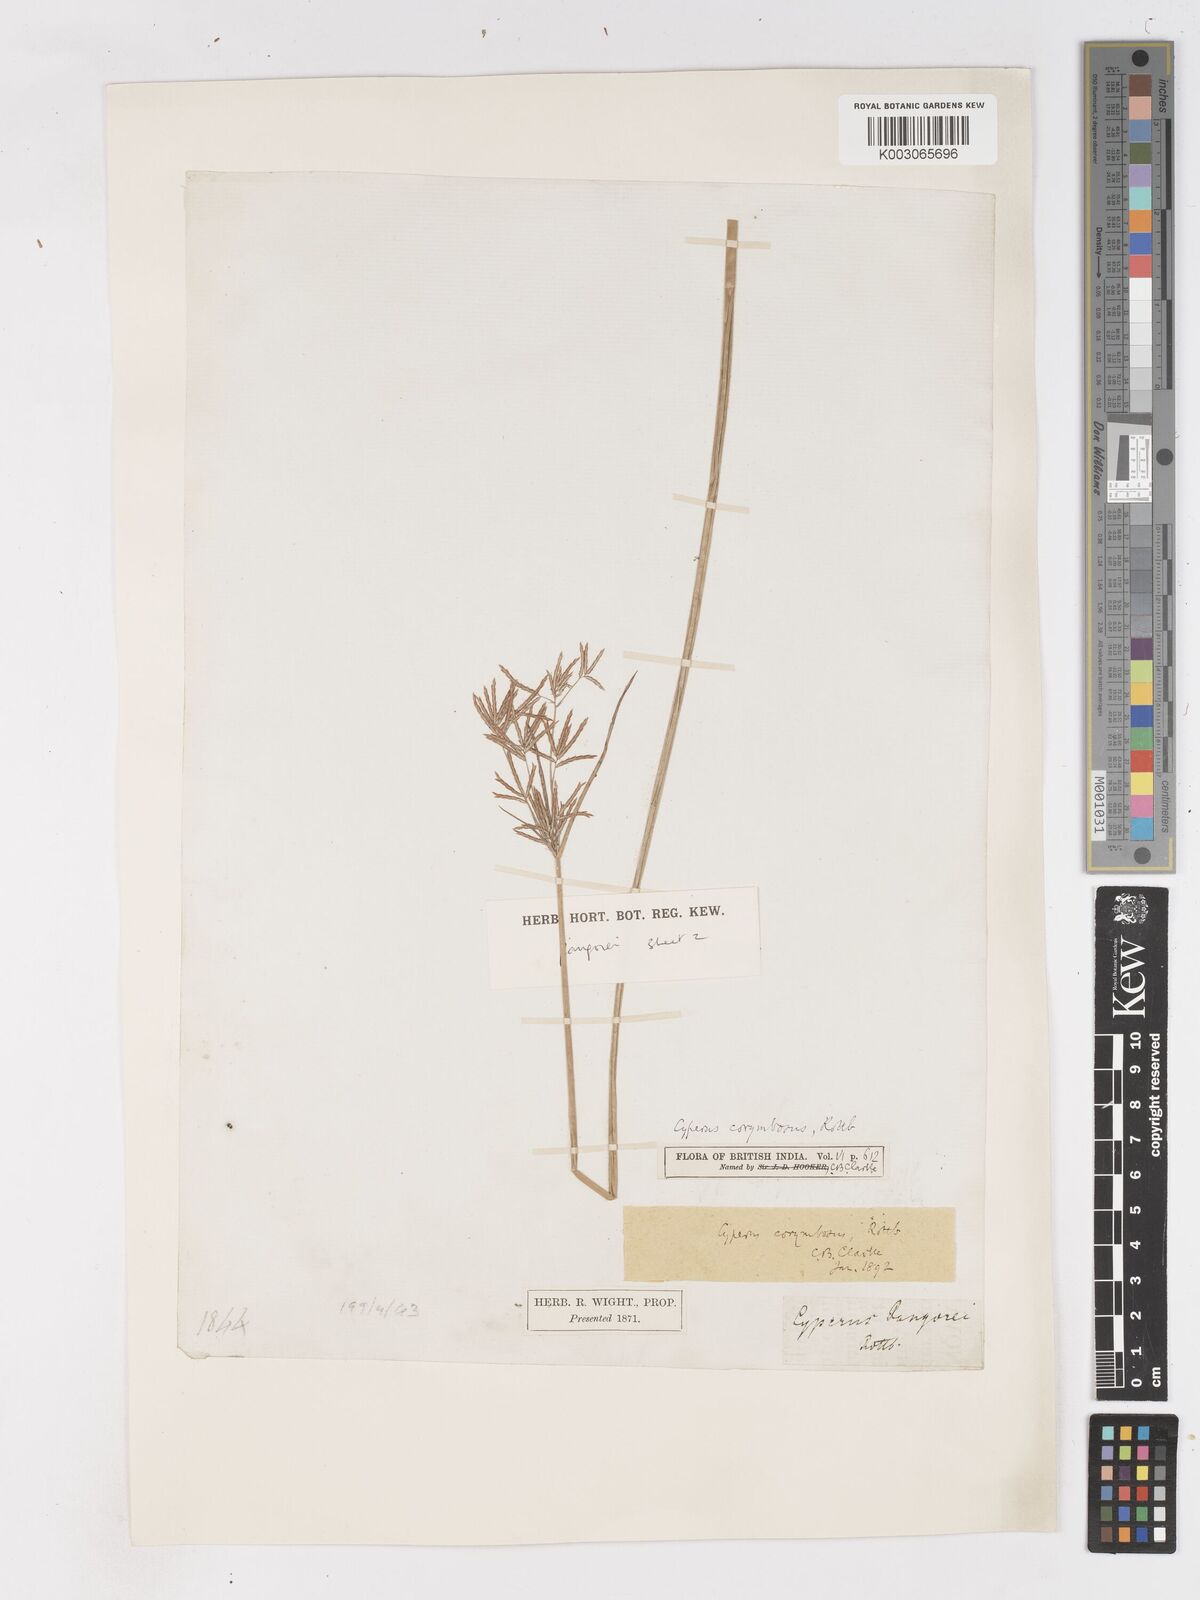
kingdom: Plantae
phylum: Tracheophyta
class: Liliopsida
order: Poales
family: Cyperaceae
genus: Cyperus
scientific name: Cyperus pangorei
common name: Mat sedge
